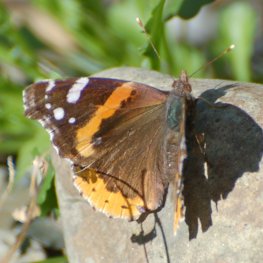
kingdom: Animalia
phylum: Arthropoda
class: Insecta
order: Lepidoptera
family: Nymphalidae
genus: Vanessa
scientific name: Vanessa atalanta
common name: Red Admiral
